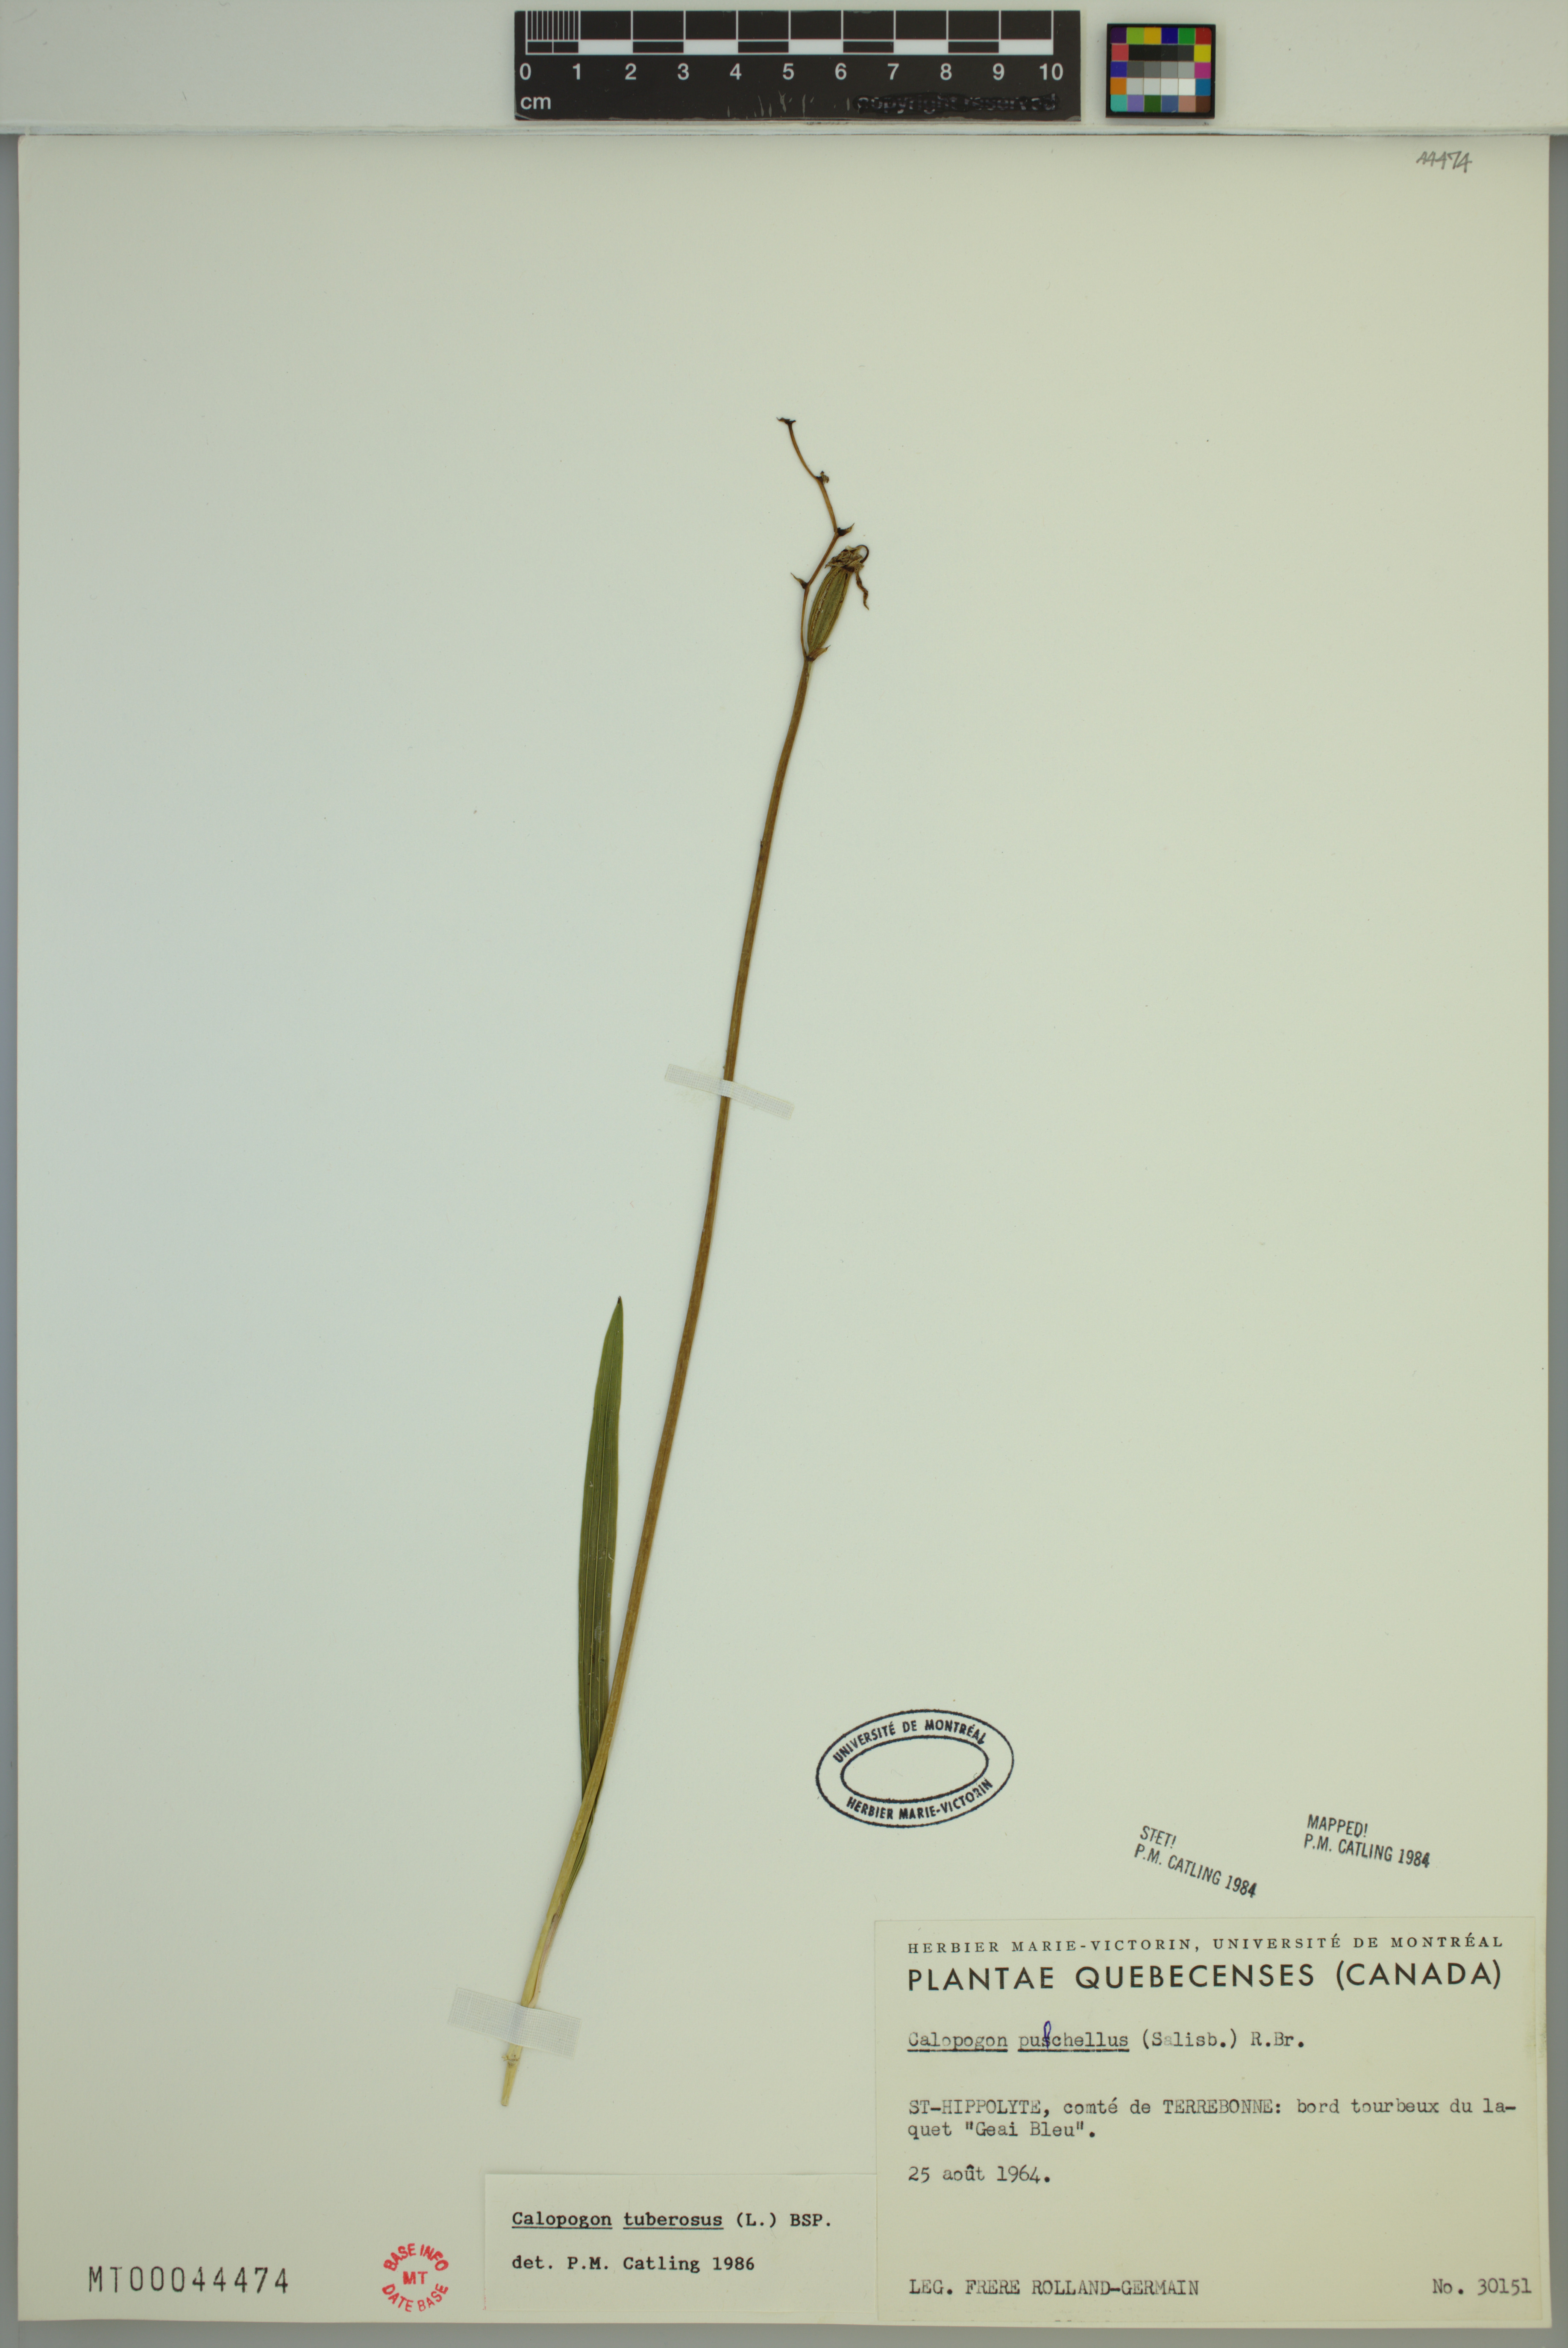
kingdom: Plantae
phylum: Tracheophyta
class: Liliopsida
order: Asparagales
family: Orchidaceae
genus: Calopogon
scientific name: Calopogon tuberosus
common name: Grass-pink
